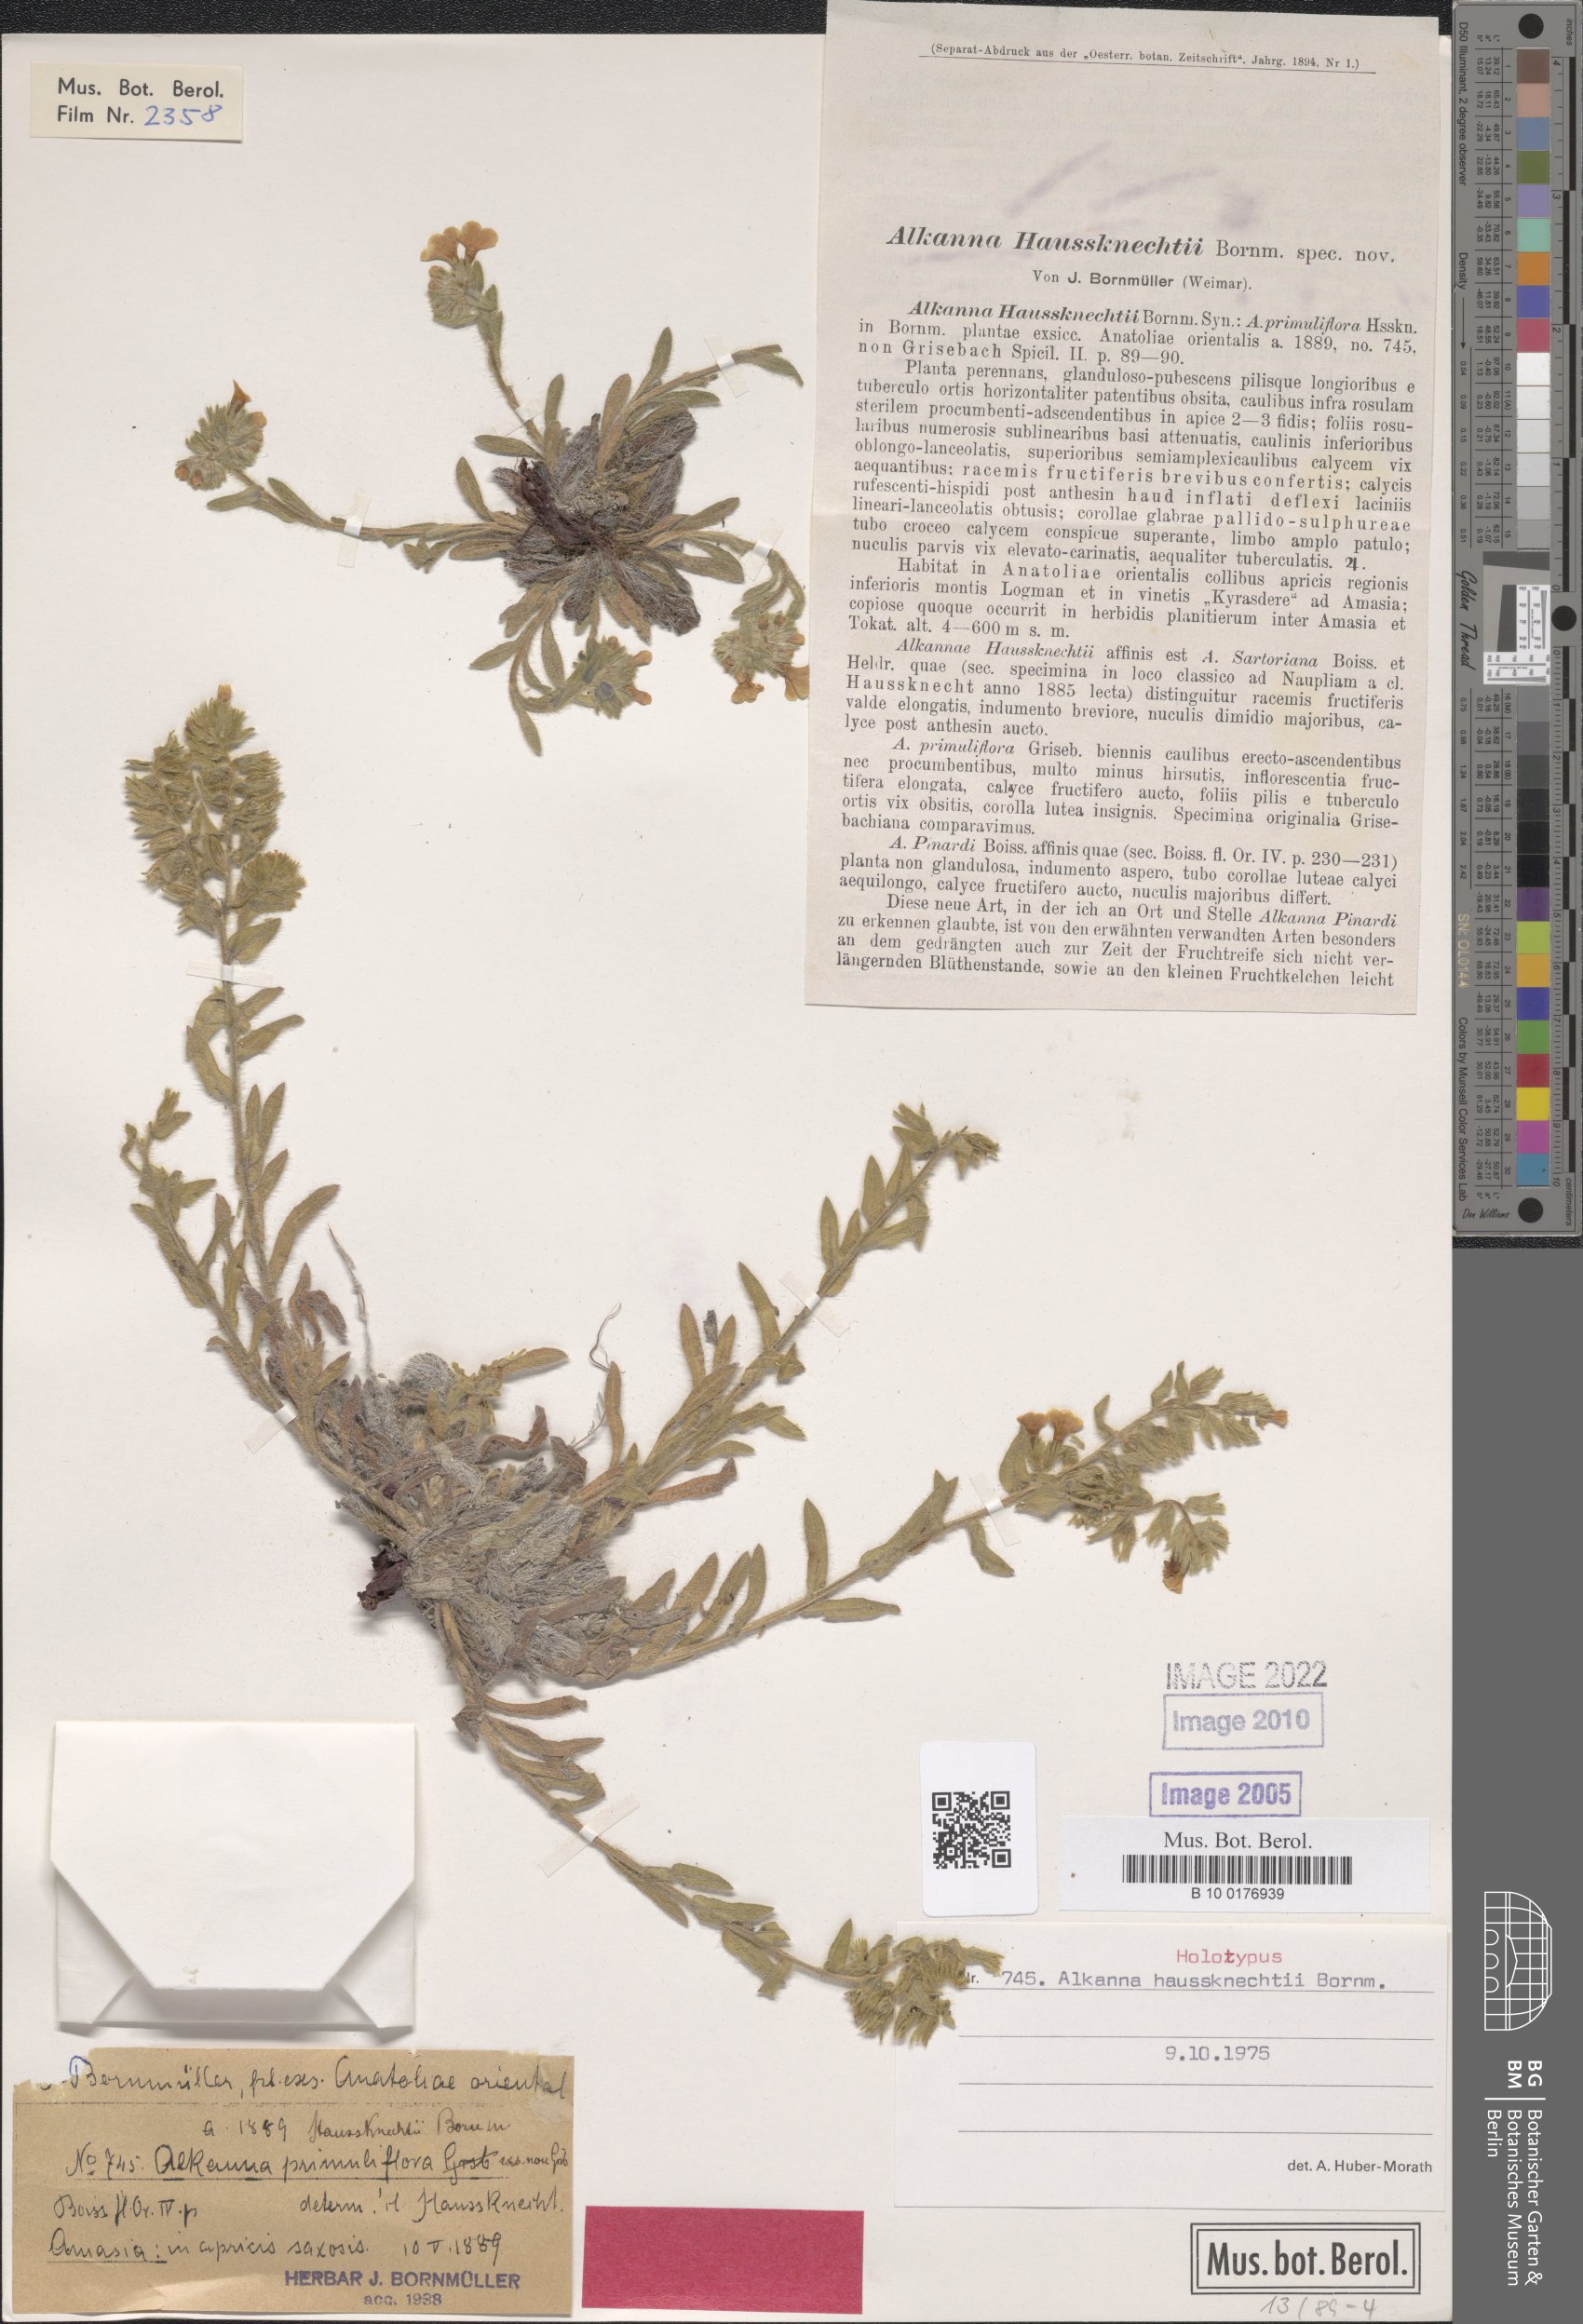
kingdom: Plantae
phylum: Tracheophyta
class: Magnoliopsida
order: Boraginales
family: Boraginaceae
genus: Alkanna
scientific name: Alkanna haussknechtii
